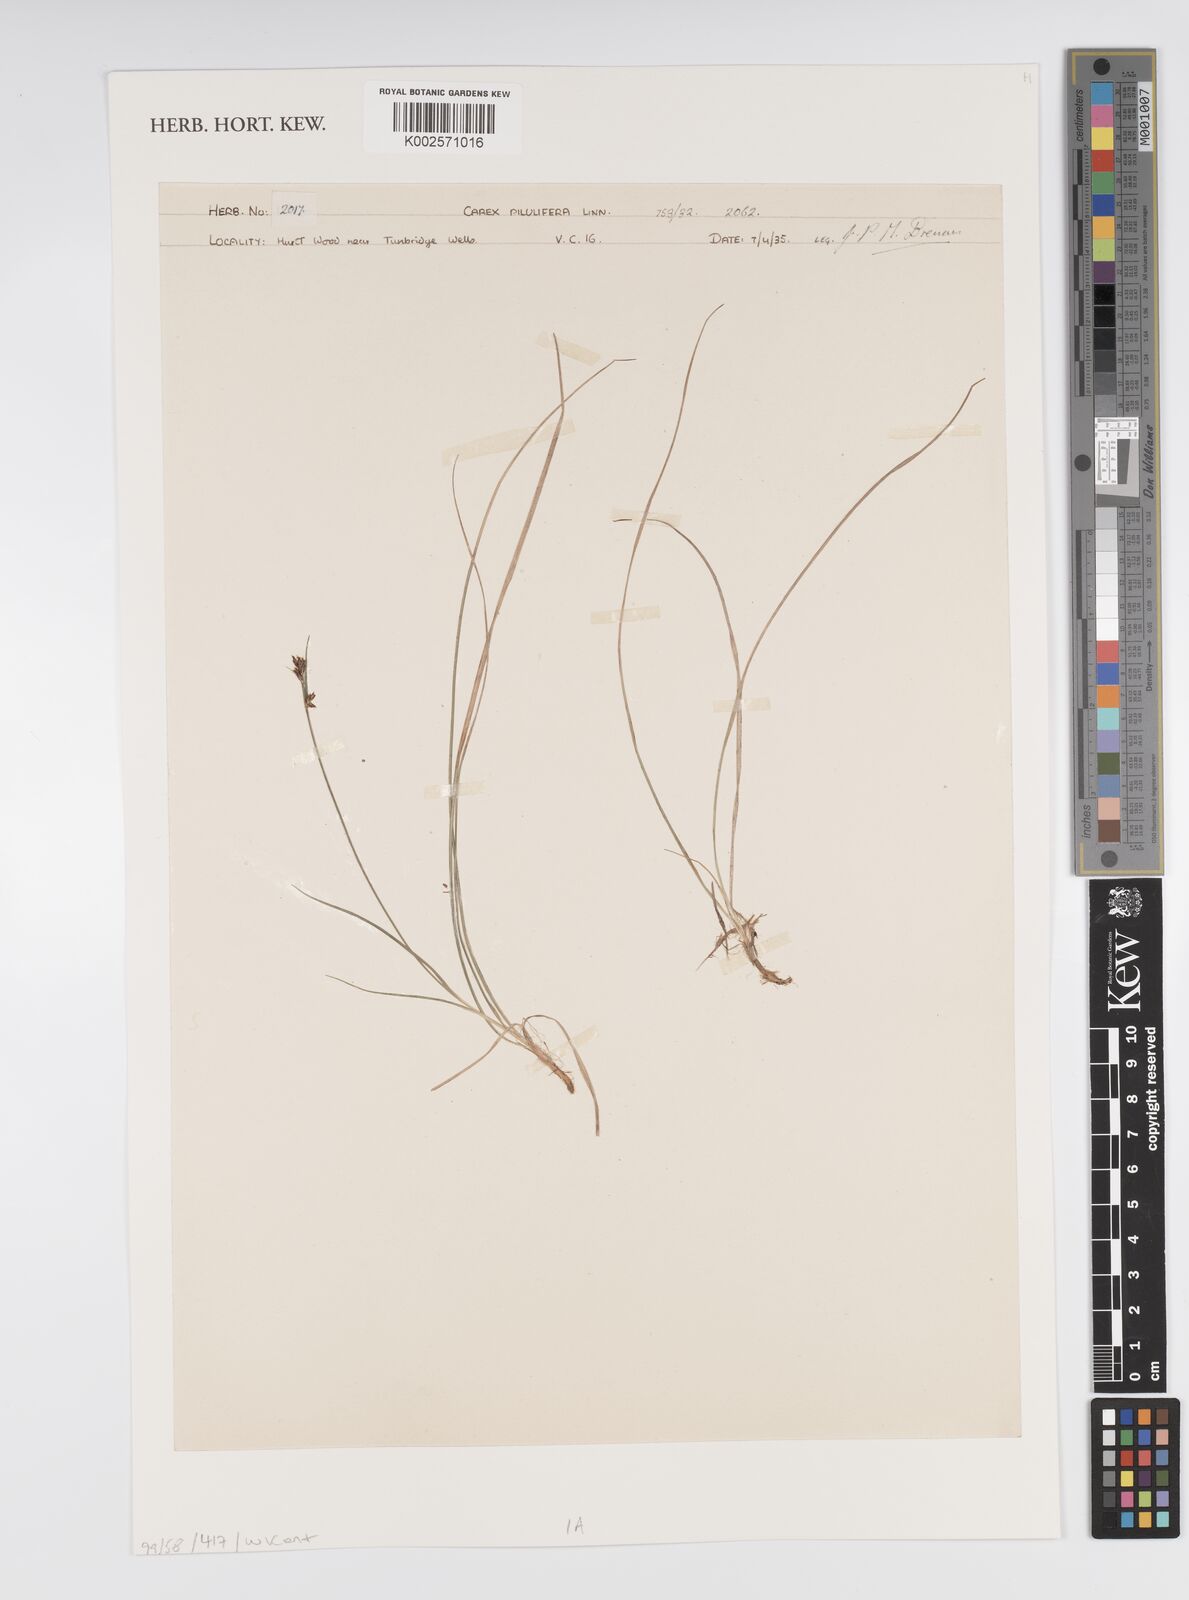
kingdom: Plantae
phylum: Tracheophyta
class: Liliopsida
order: Poales
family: Cyperaceae
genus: Carex
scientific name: Carex praecox
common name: Early sedge
